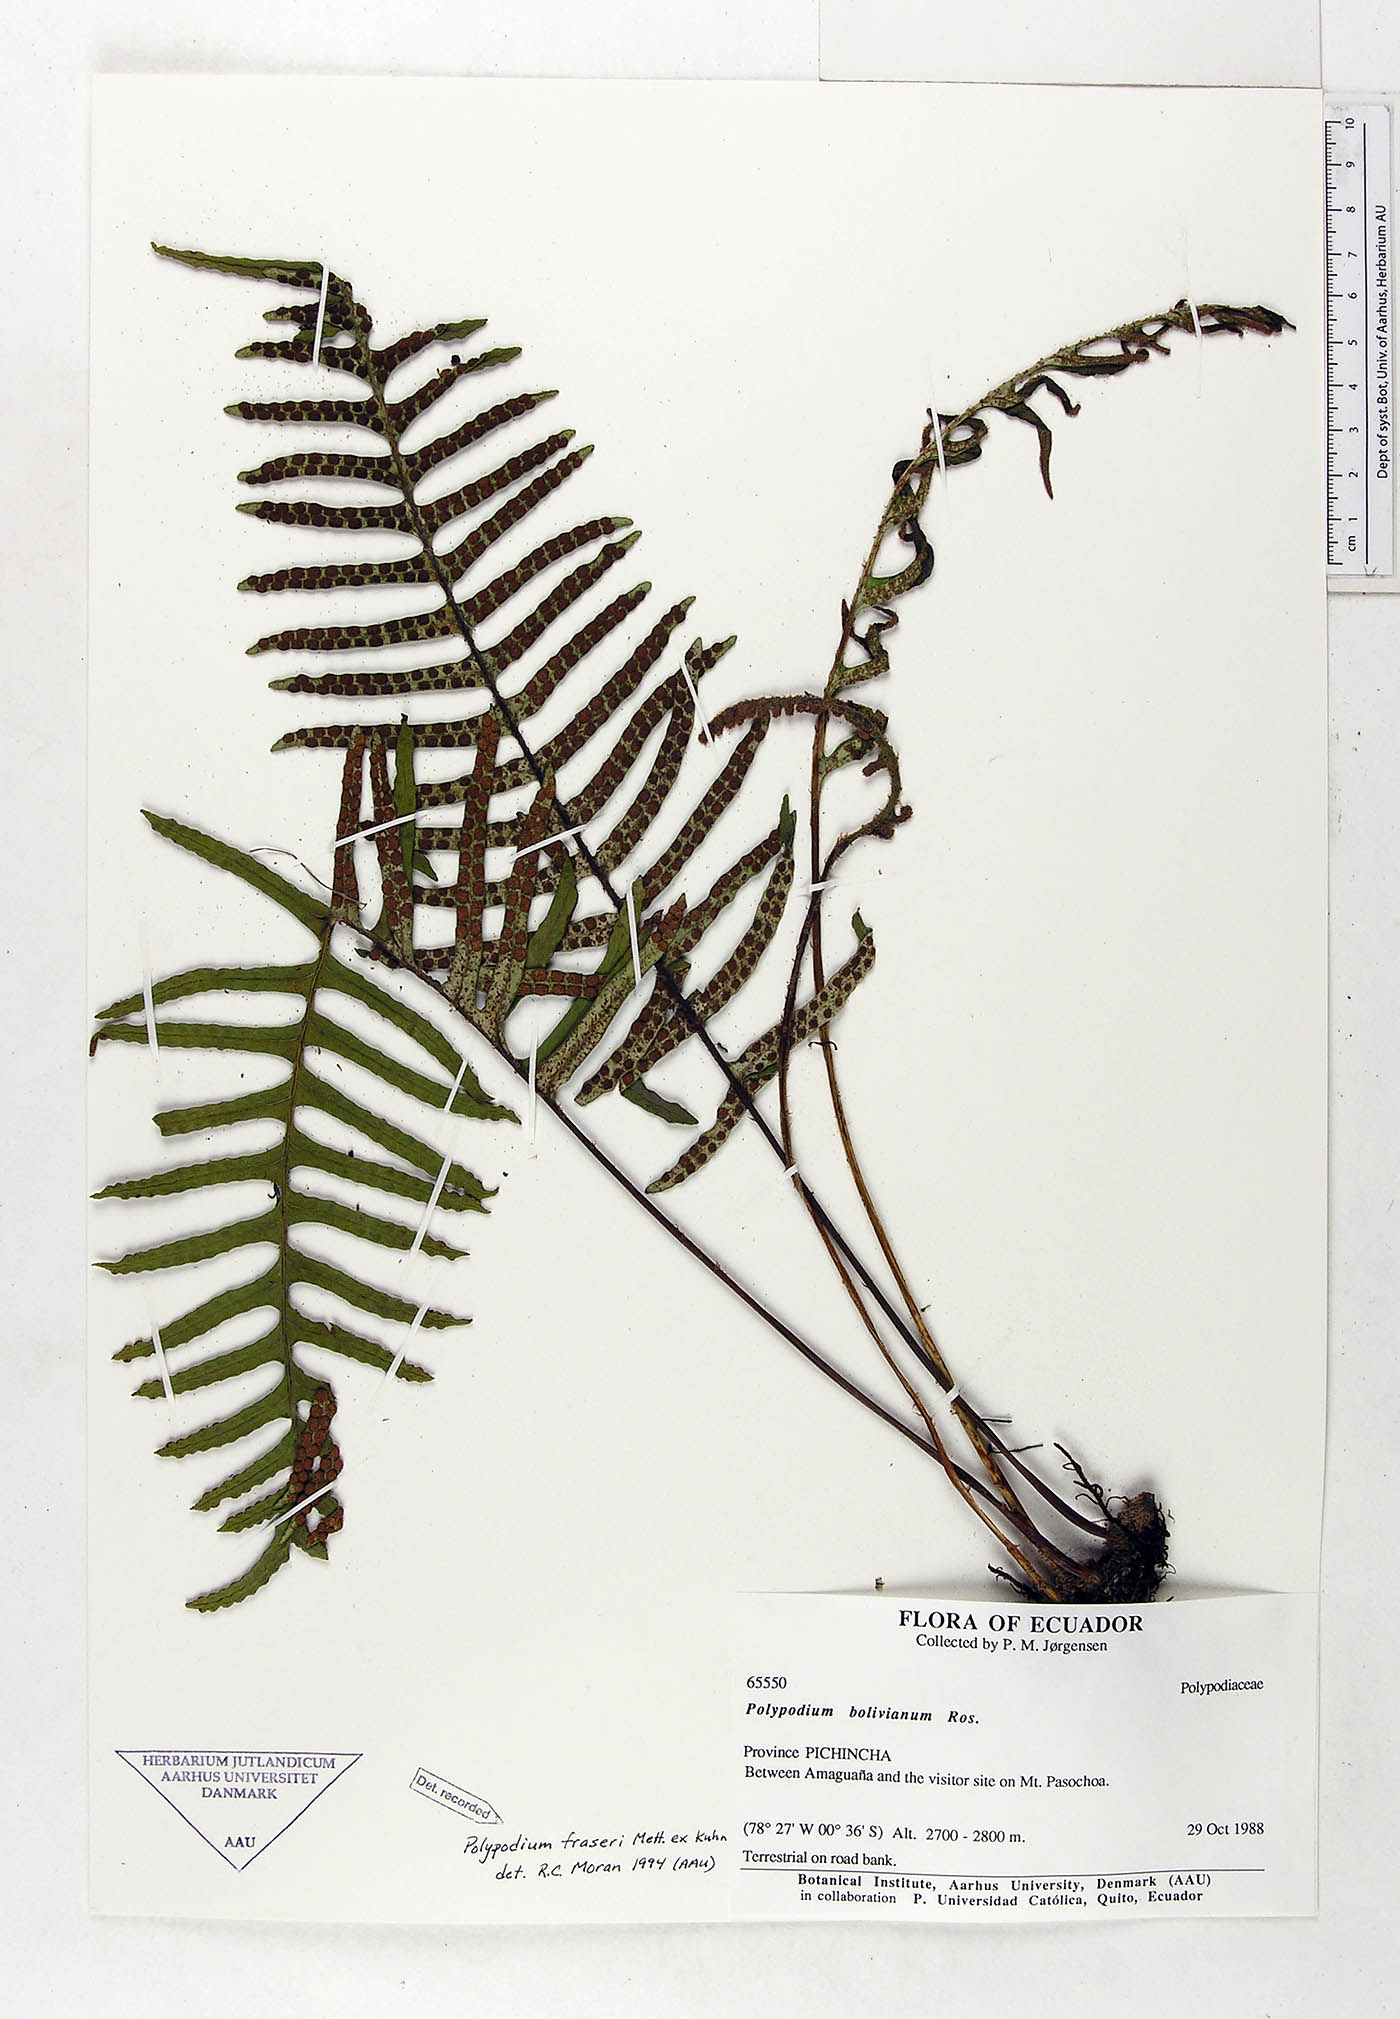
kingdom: Plantae
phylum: Tracheophyta
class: Polypodiopsida
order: Polypodiales
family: Polypodiaceae
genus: Pleopeltis
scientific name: Pleopeltis fraseri
